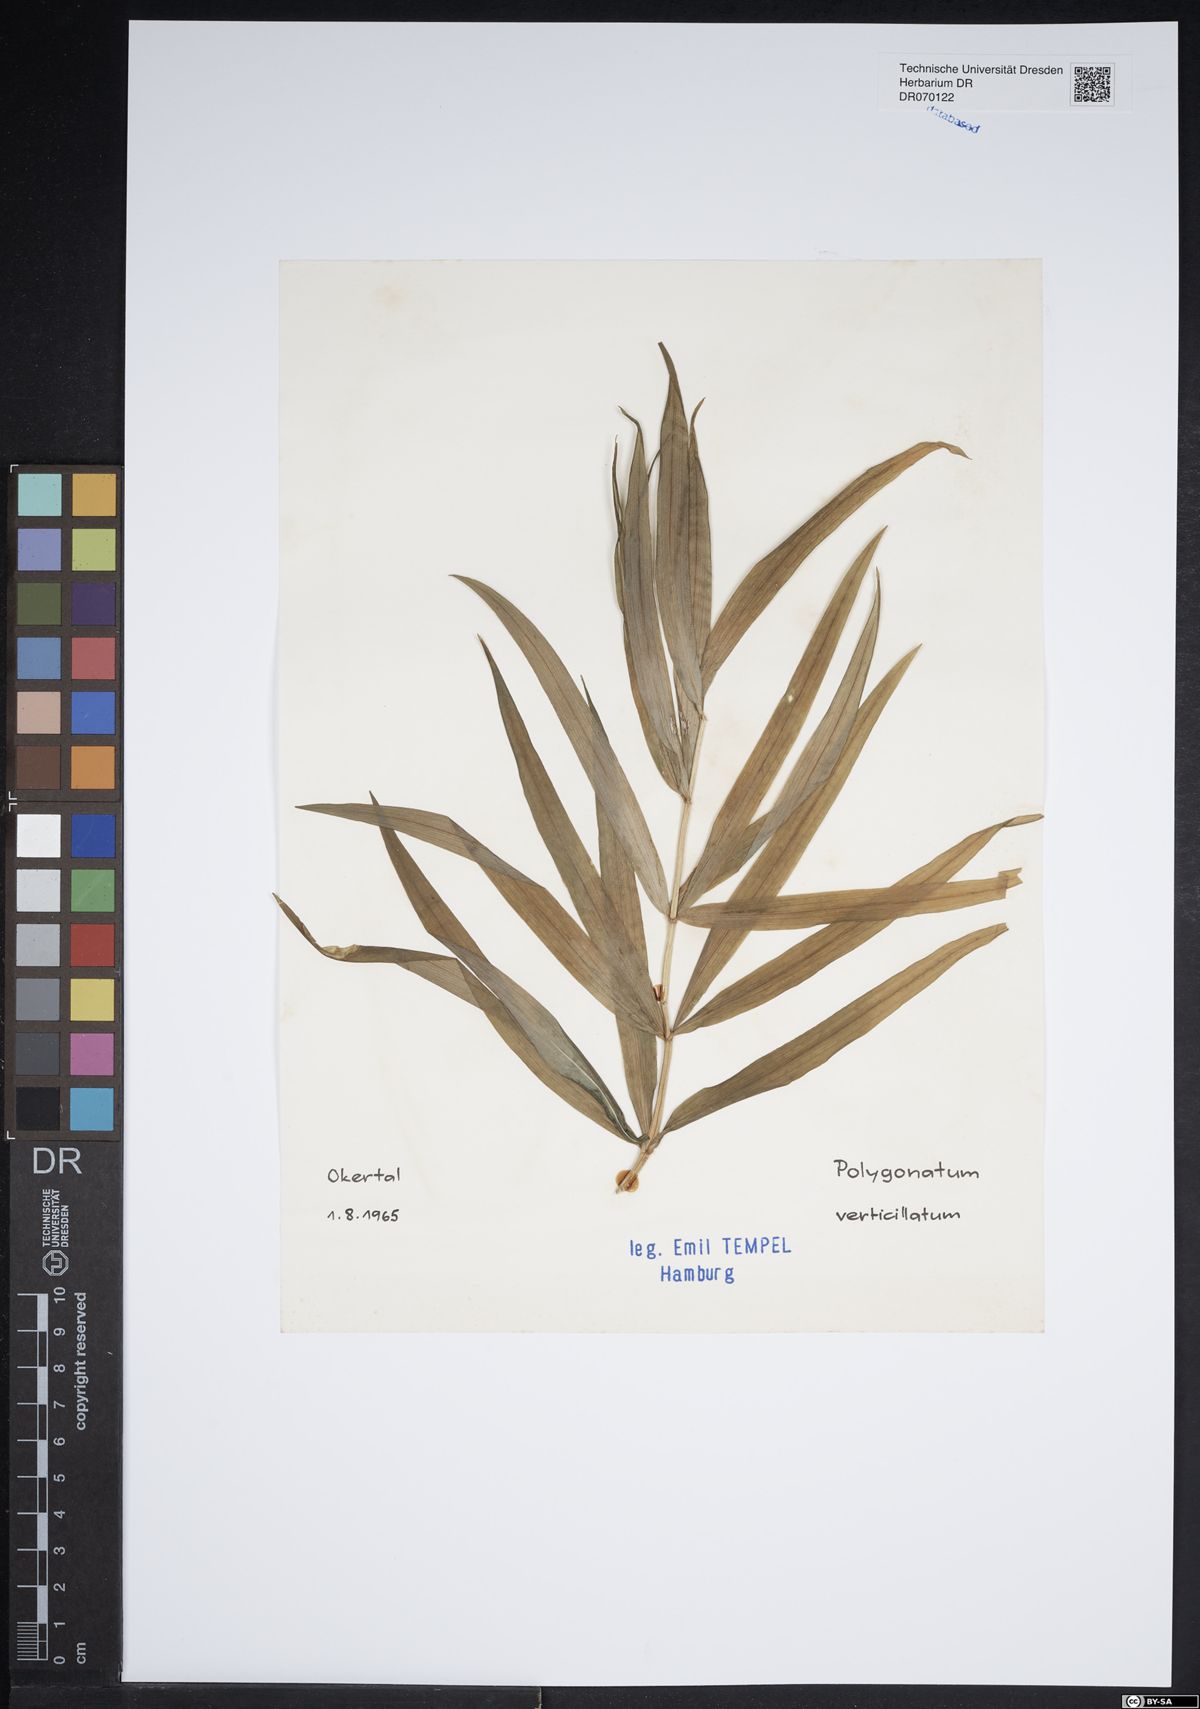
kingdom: Plantae
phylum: Tracheophyta
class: Liliopsida
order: Asparagales
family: Asparagaceae
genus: Polygonatum
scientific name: Polygonatum verticillatum
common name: Whorled solomon's-seal
